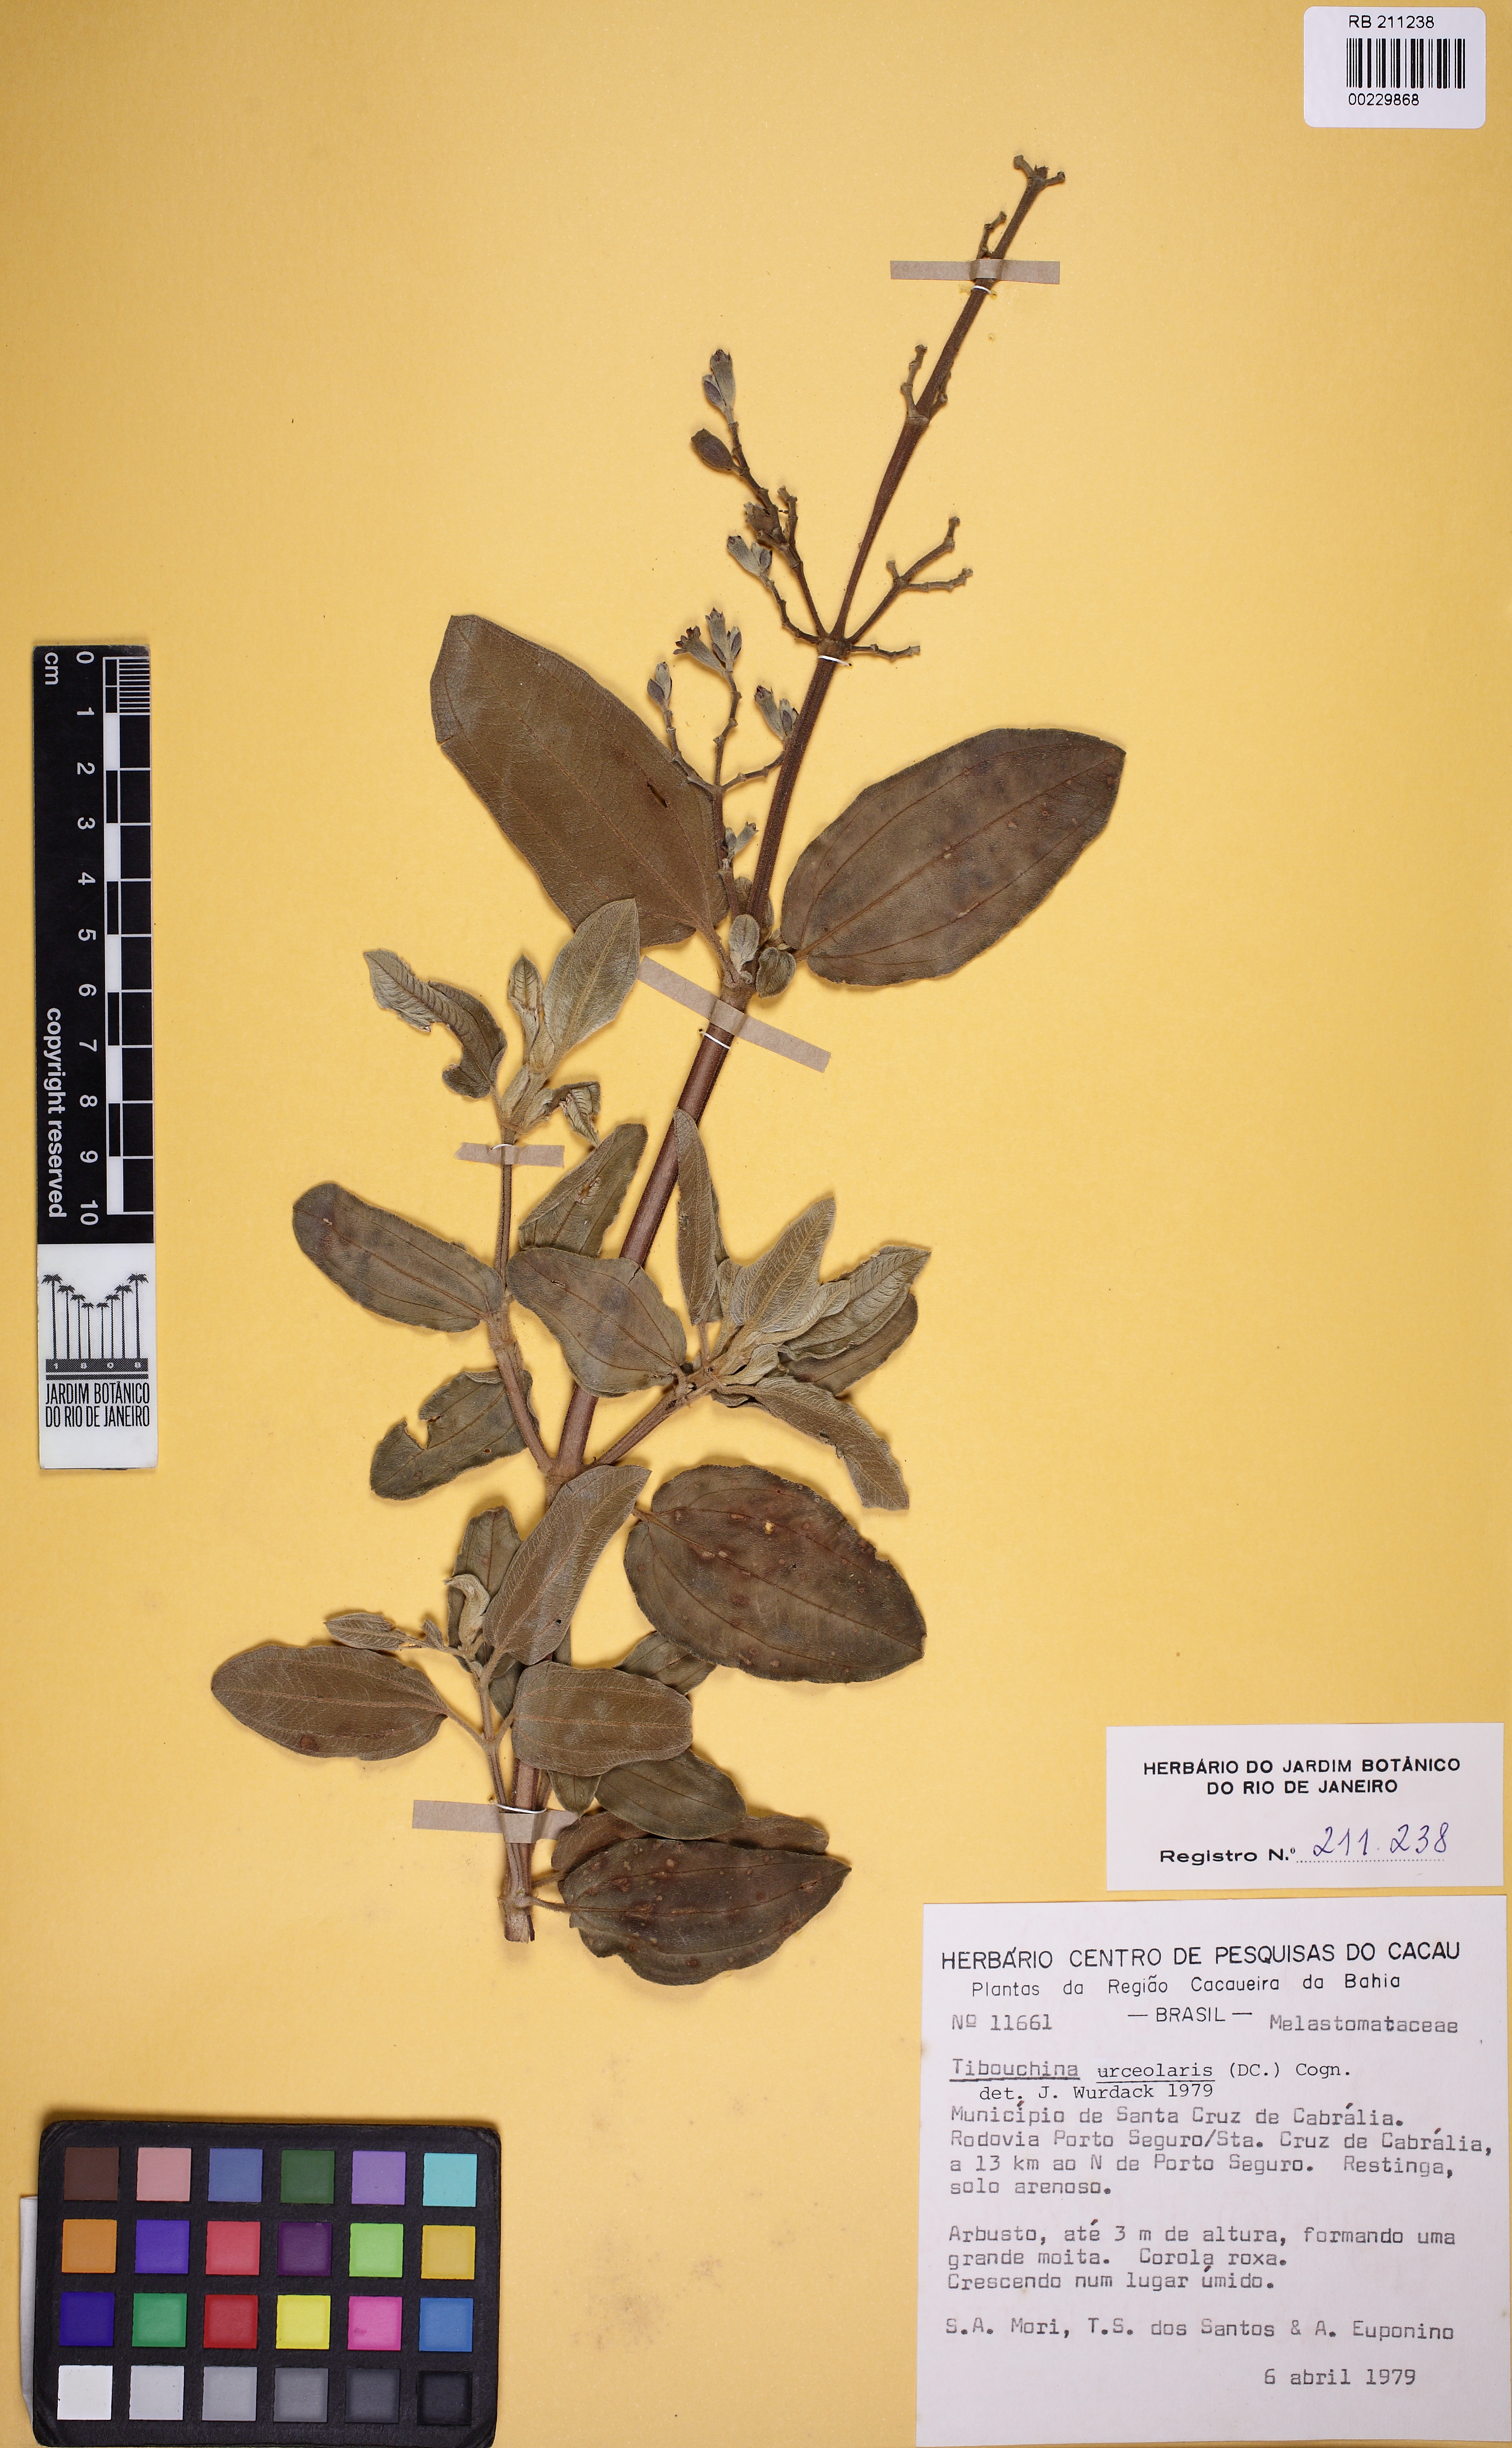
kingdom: Plantae
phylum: Tracheophyta
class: Magnoliopsida
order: Myrtales
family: Melastomataceae
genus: Pleroma
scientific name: Pleroma urceolare
